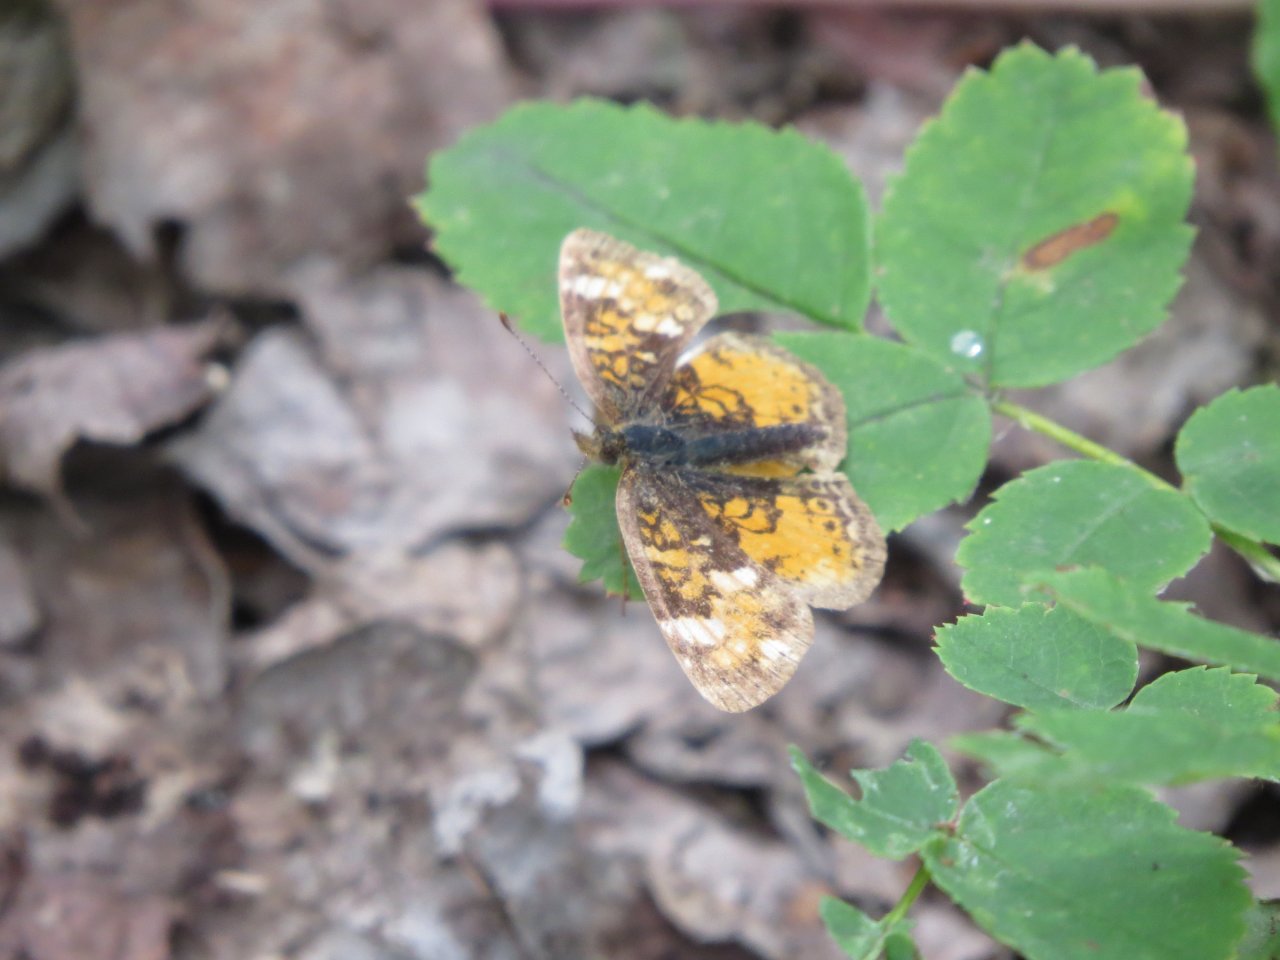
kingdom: Animalia
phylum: Arthropoda
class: Insecta
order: Lepidoptera
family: Nymphalidae
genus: Phyciodes
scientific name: Phyciodes tharos
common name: Northern Crescent
